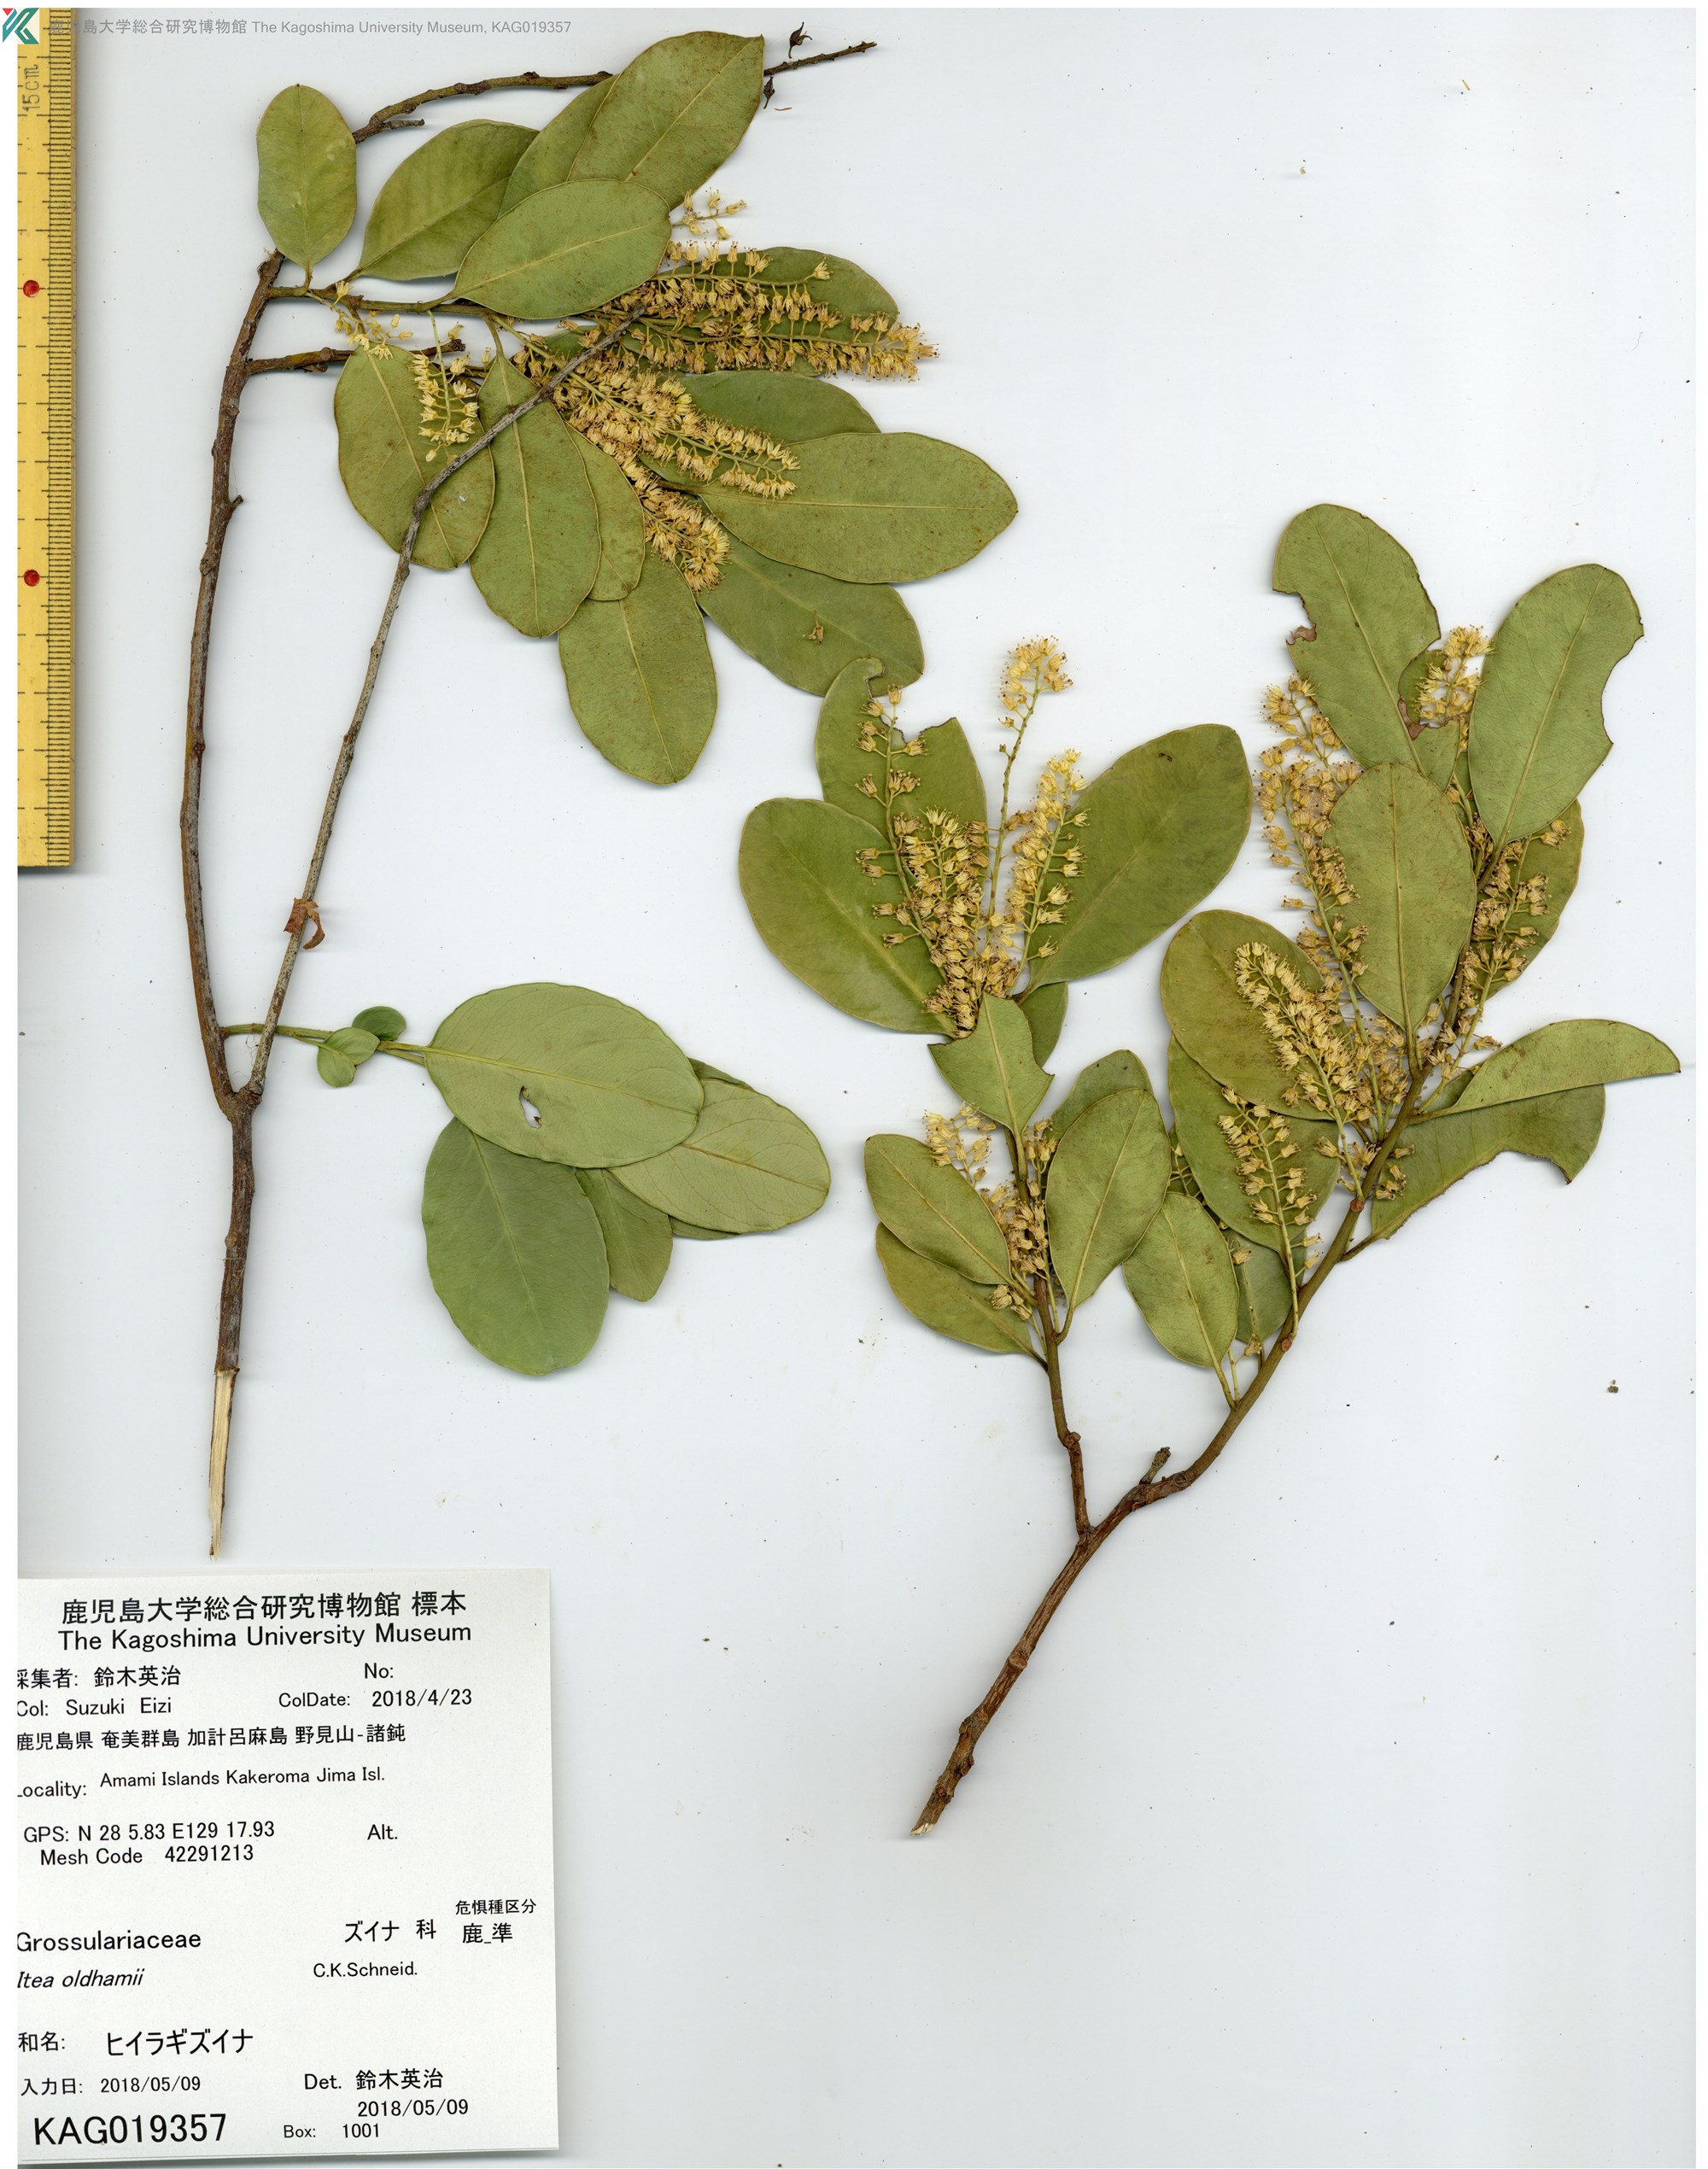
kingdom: Plantae
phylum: Tracheophyta
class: Magnoliopsida
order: Saxifragales
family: Iteaceae
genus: Itea
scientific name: Itea oldhamii
